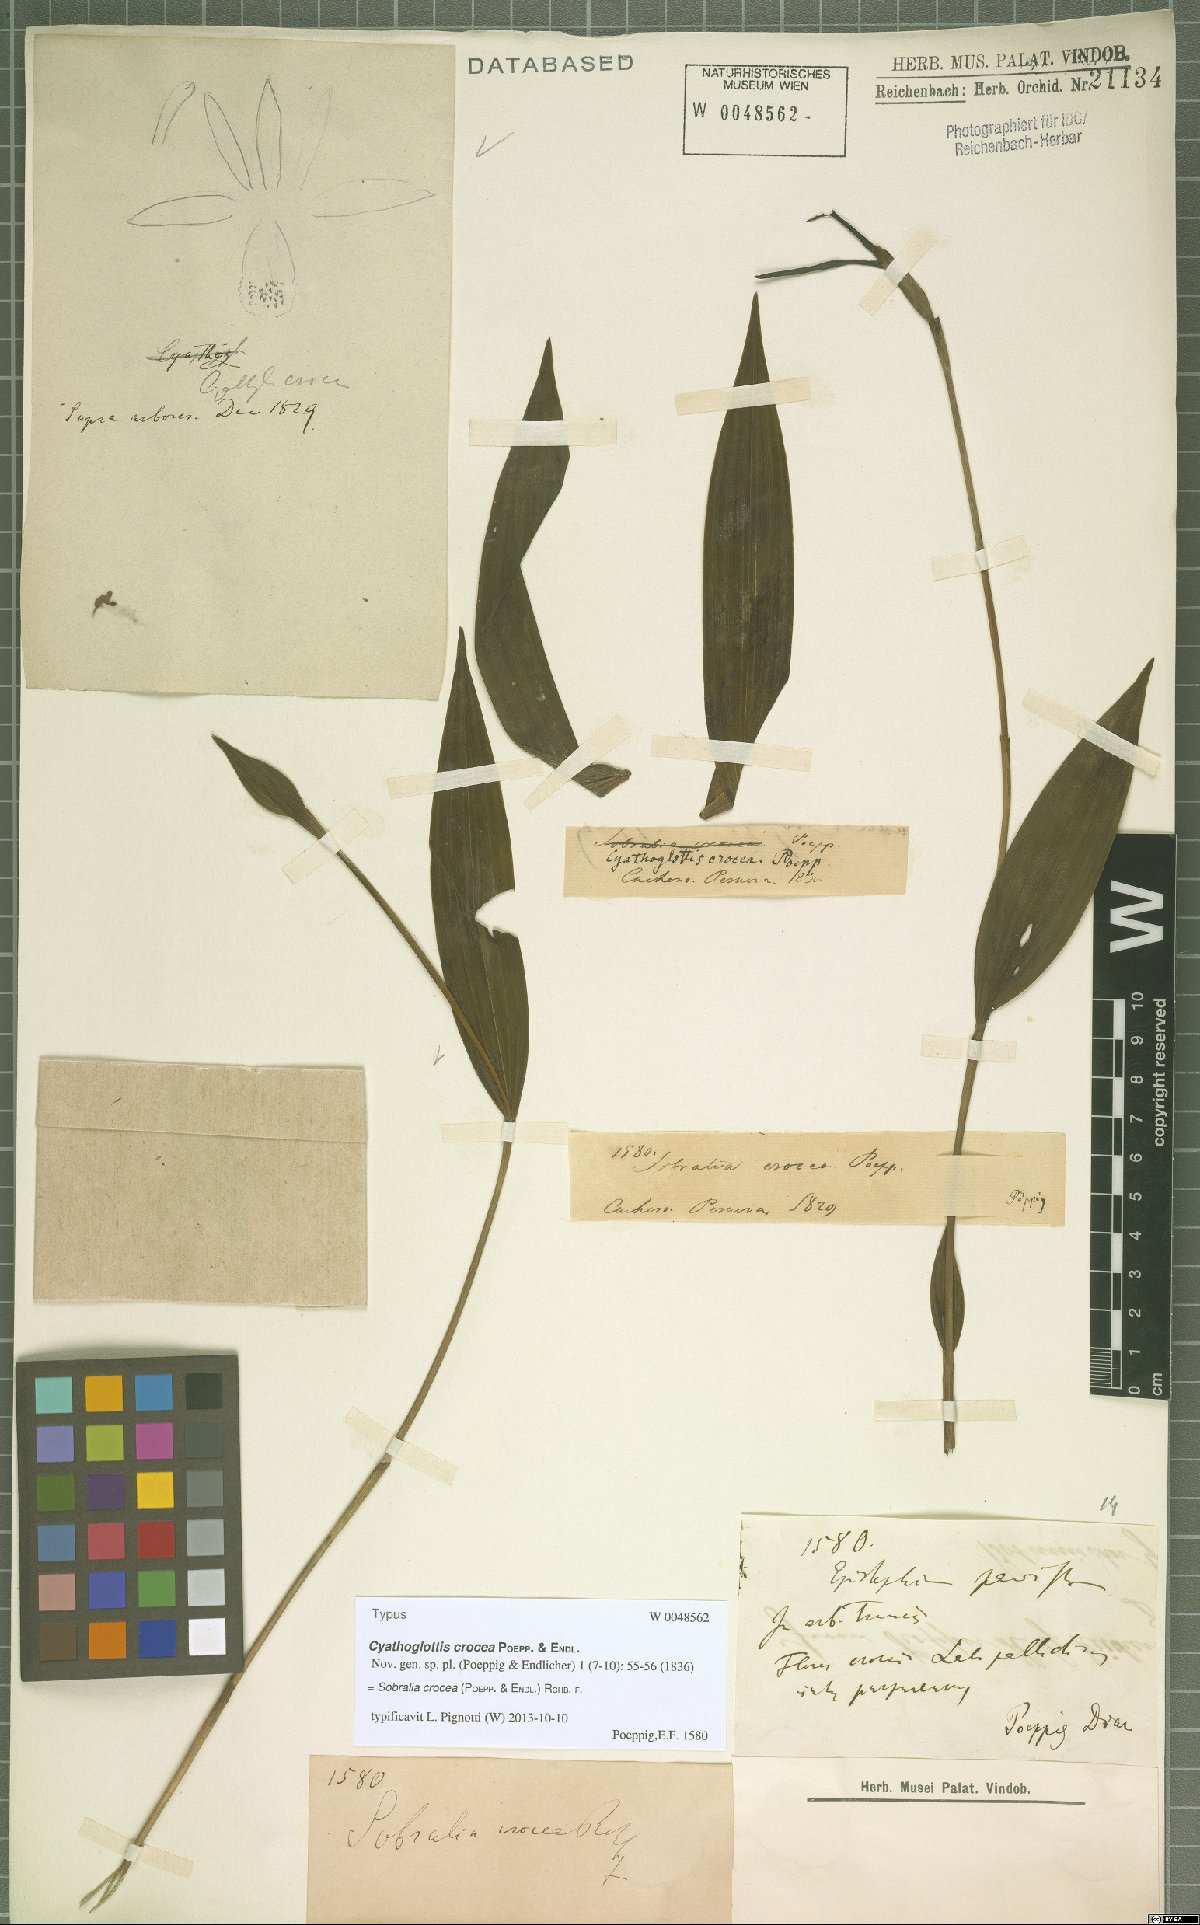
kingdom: Plantae
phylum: Tracheophyta
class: Liliopsida
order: Asparagales
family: Orchidaceae
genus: Sobralia
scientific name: Sobralia crocea
